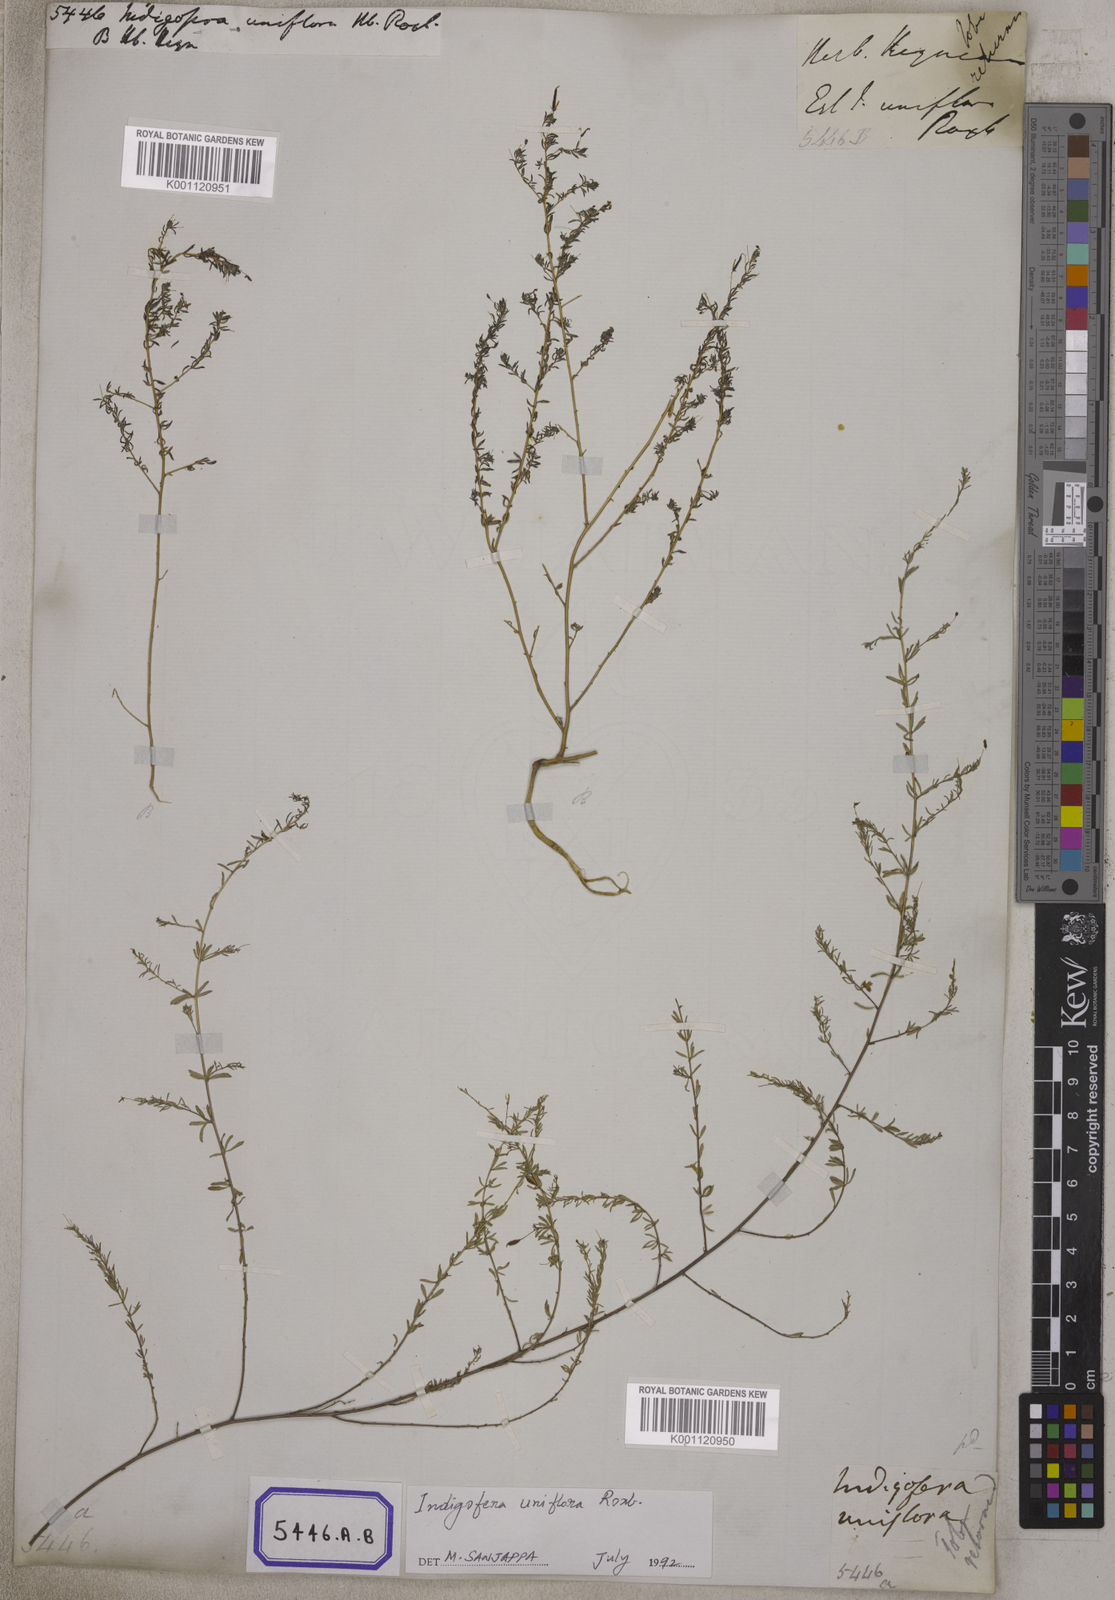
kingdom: Plantae
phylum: Tracheophyta
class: Magnoliopsida
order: Fabales
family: Fabaceae
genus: Indigofera
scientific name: Indigofera
